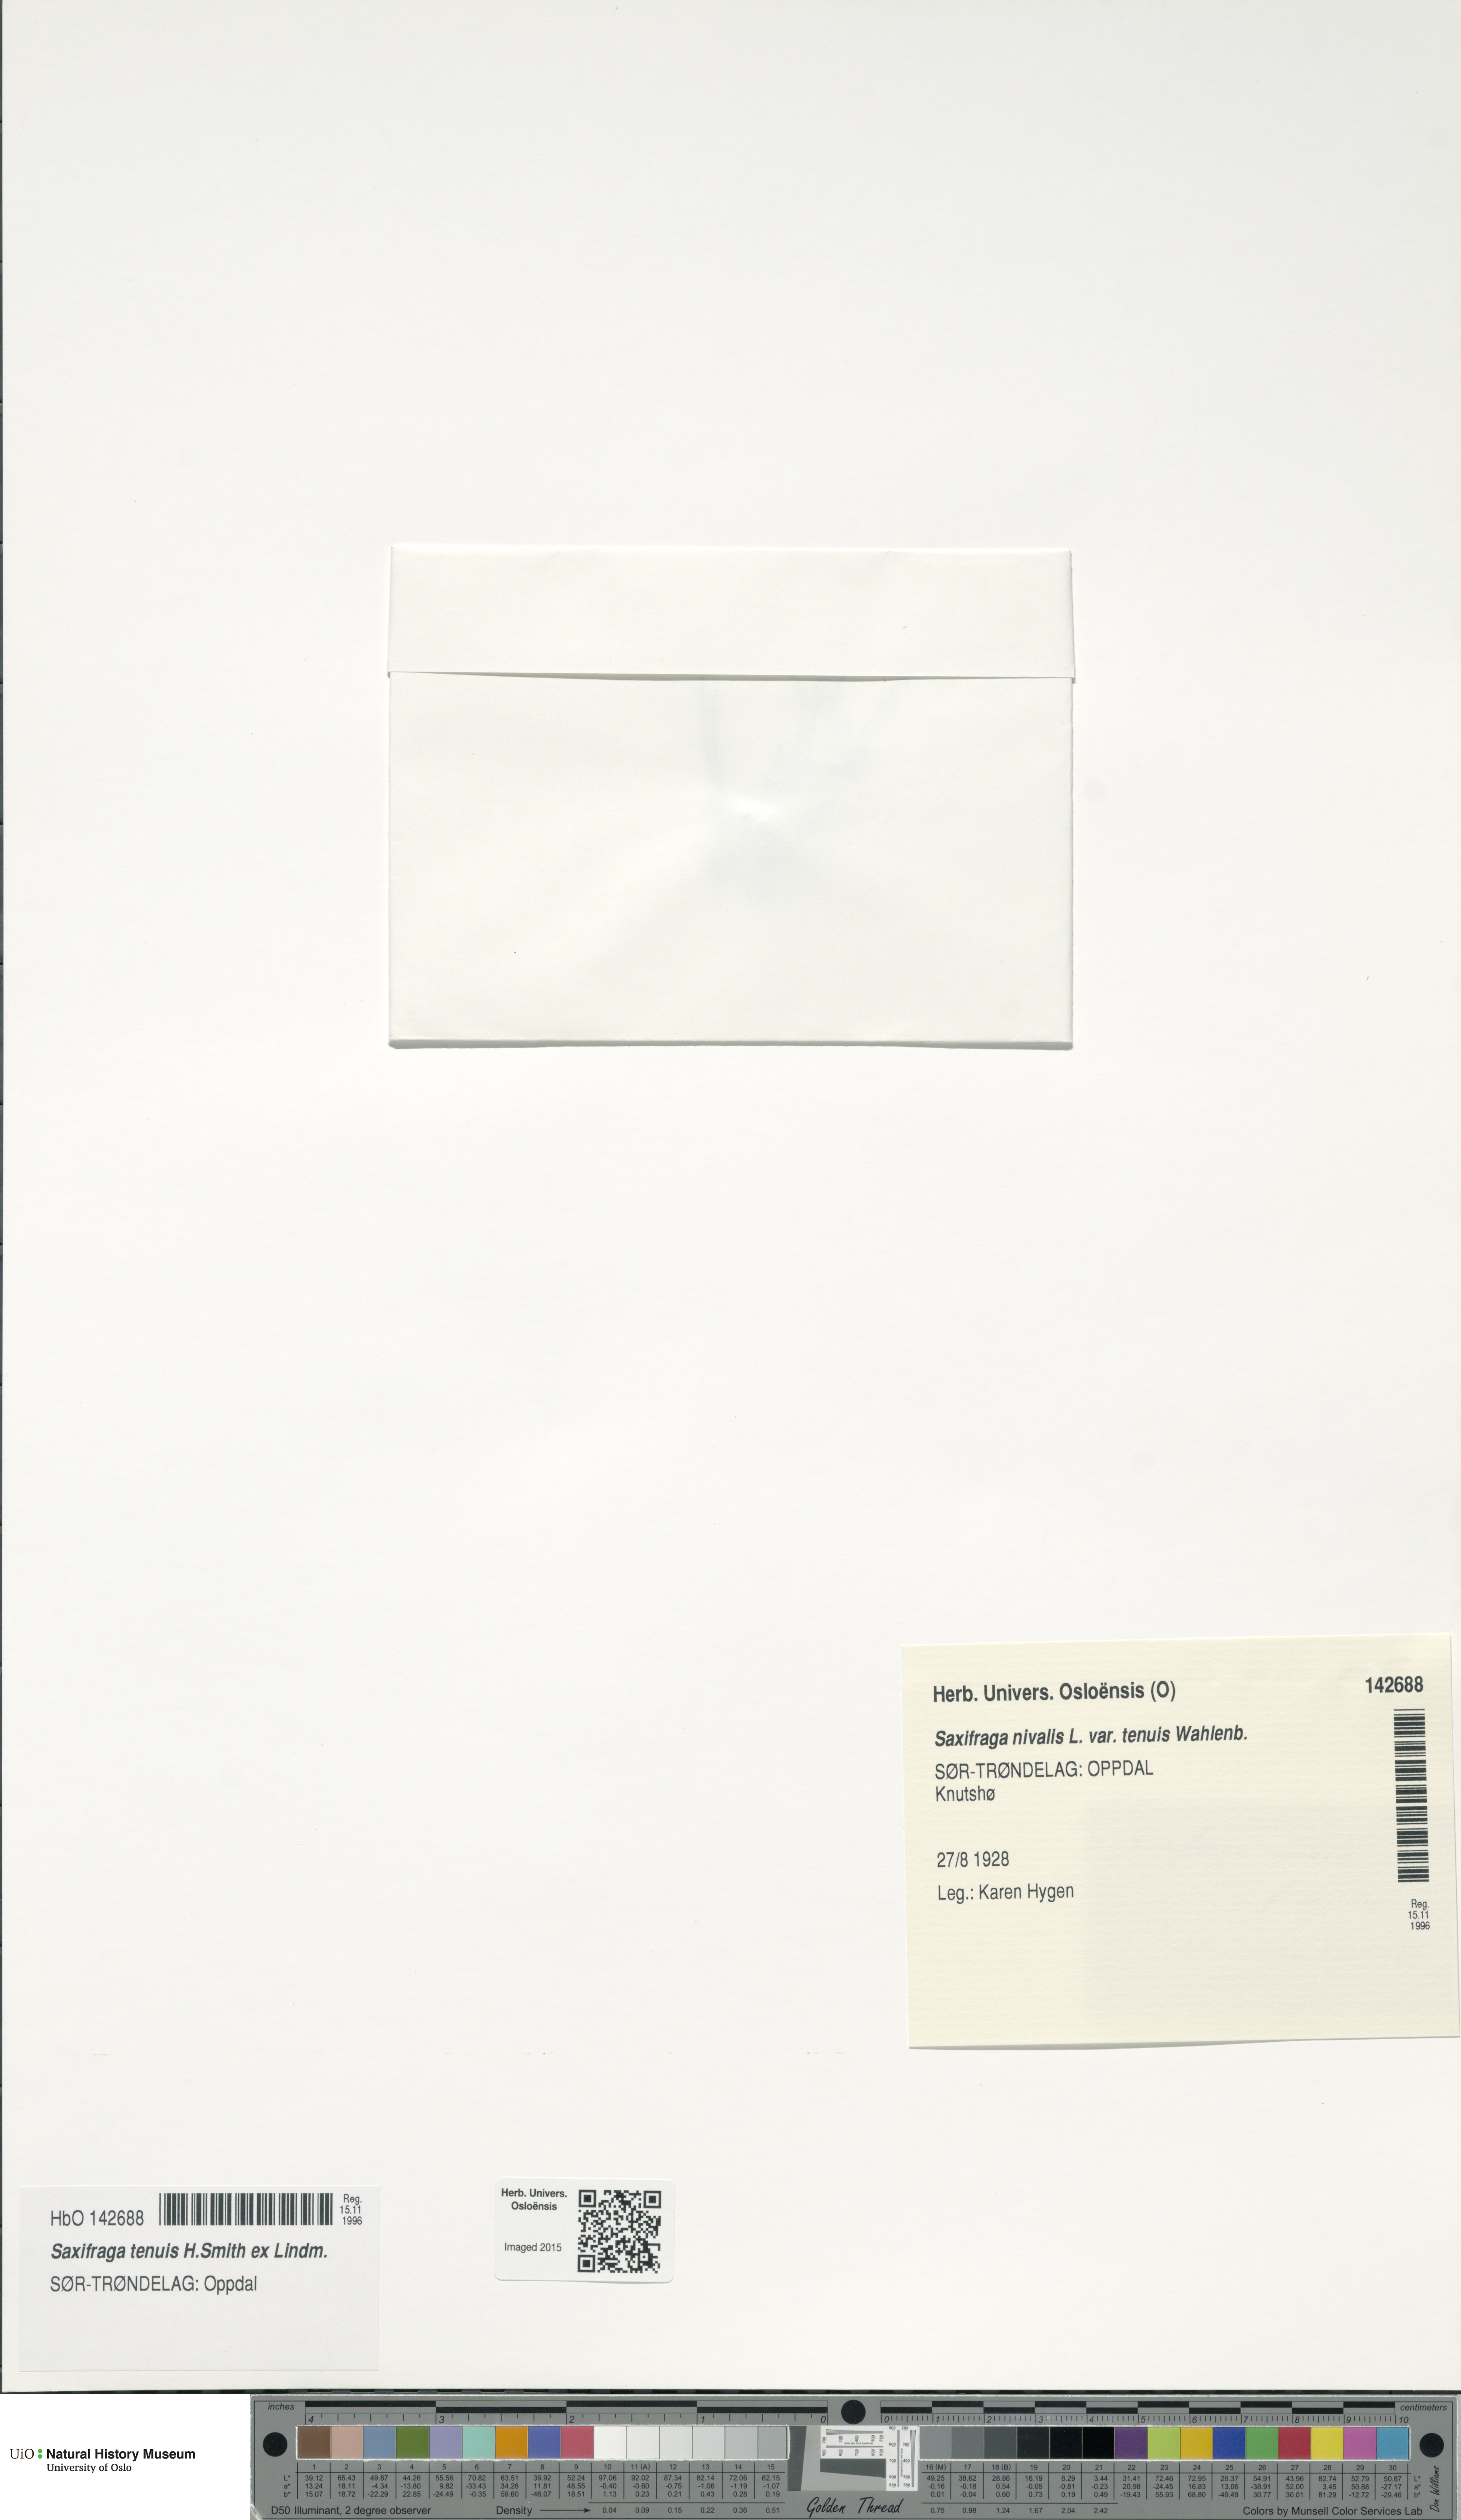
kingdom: Plantae
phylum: Tracheophyta
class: Magnoliopsida
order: Saxifragales
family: Saxifragaceae
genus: Micranthes
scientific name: Micranthes tenuis
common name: Ottertail pass saxifrage
